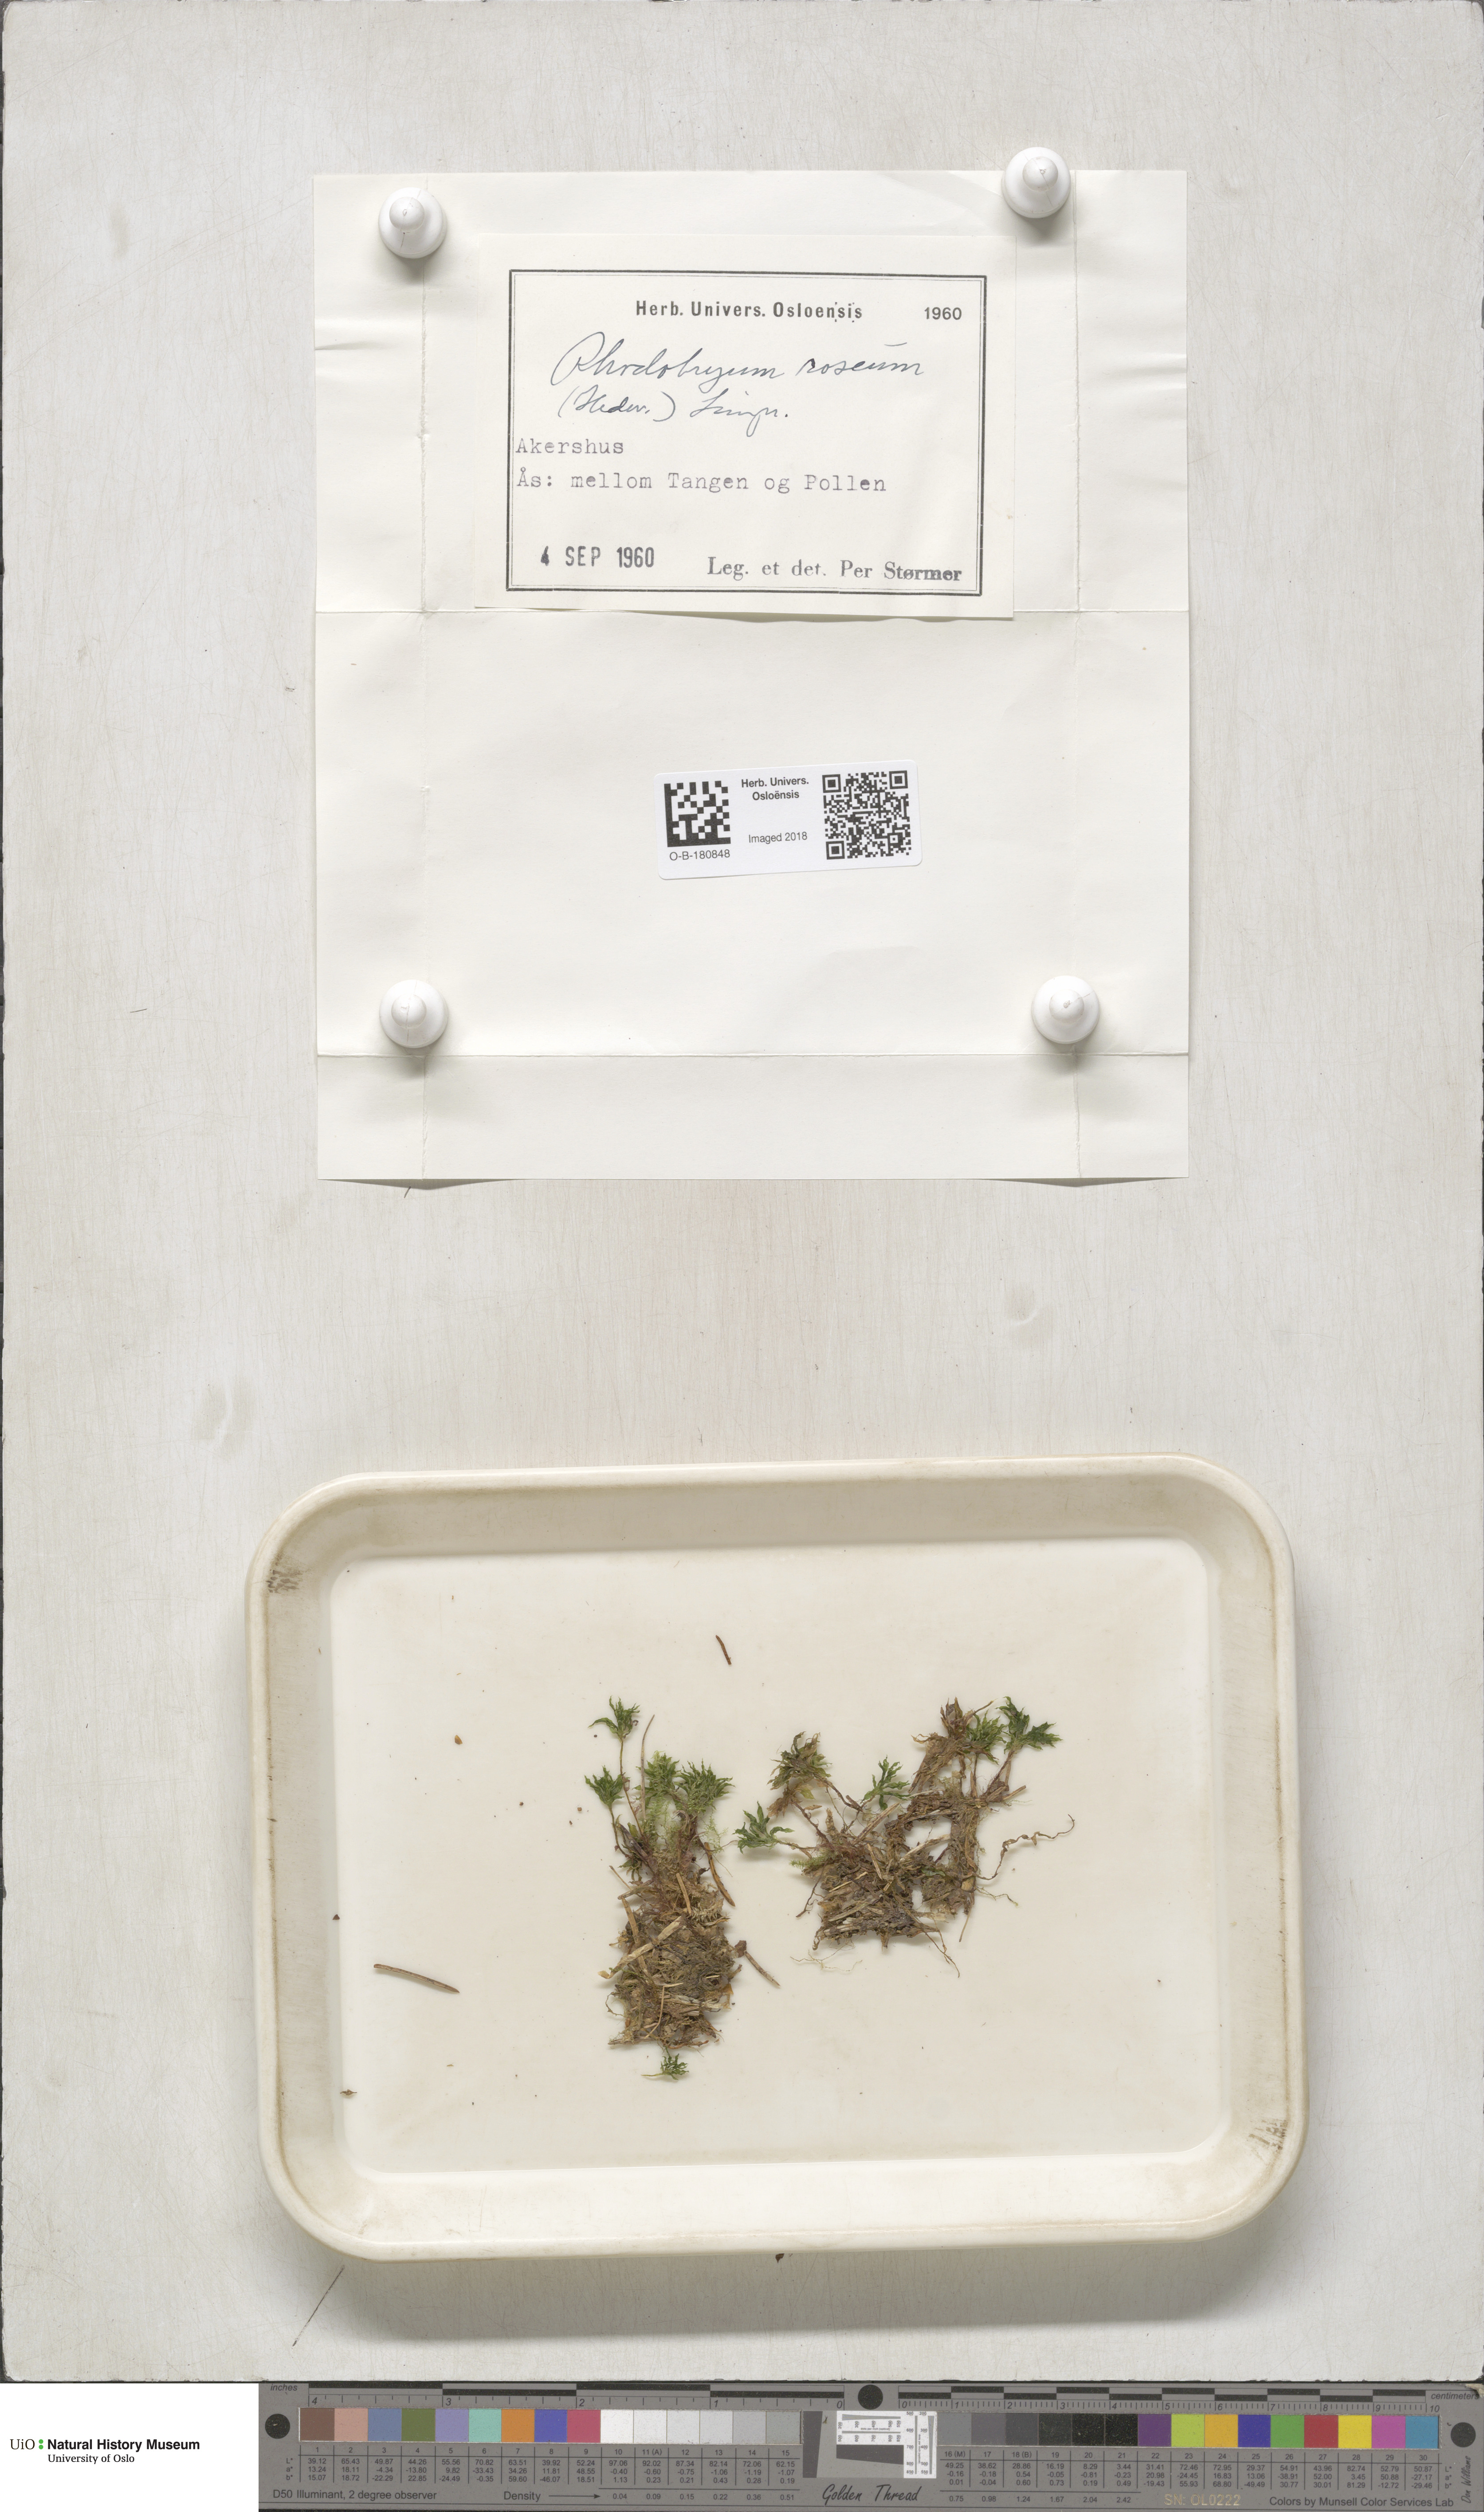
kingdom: Plantae
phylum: Bryophyta
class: Bryopsida
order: Bryales
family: Bryaceae
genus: Rhodobryum
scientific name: Rhodobryum roseum
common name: Rose-moss
